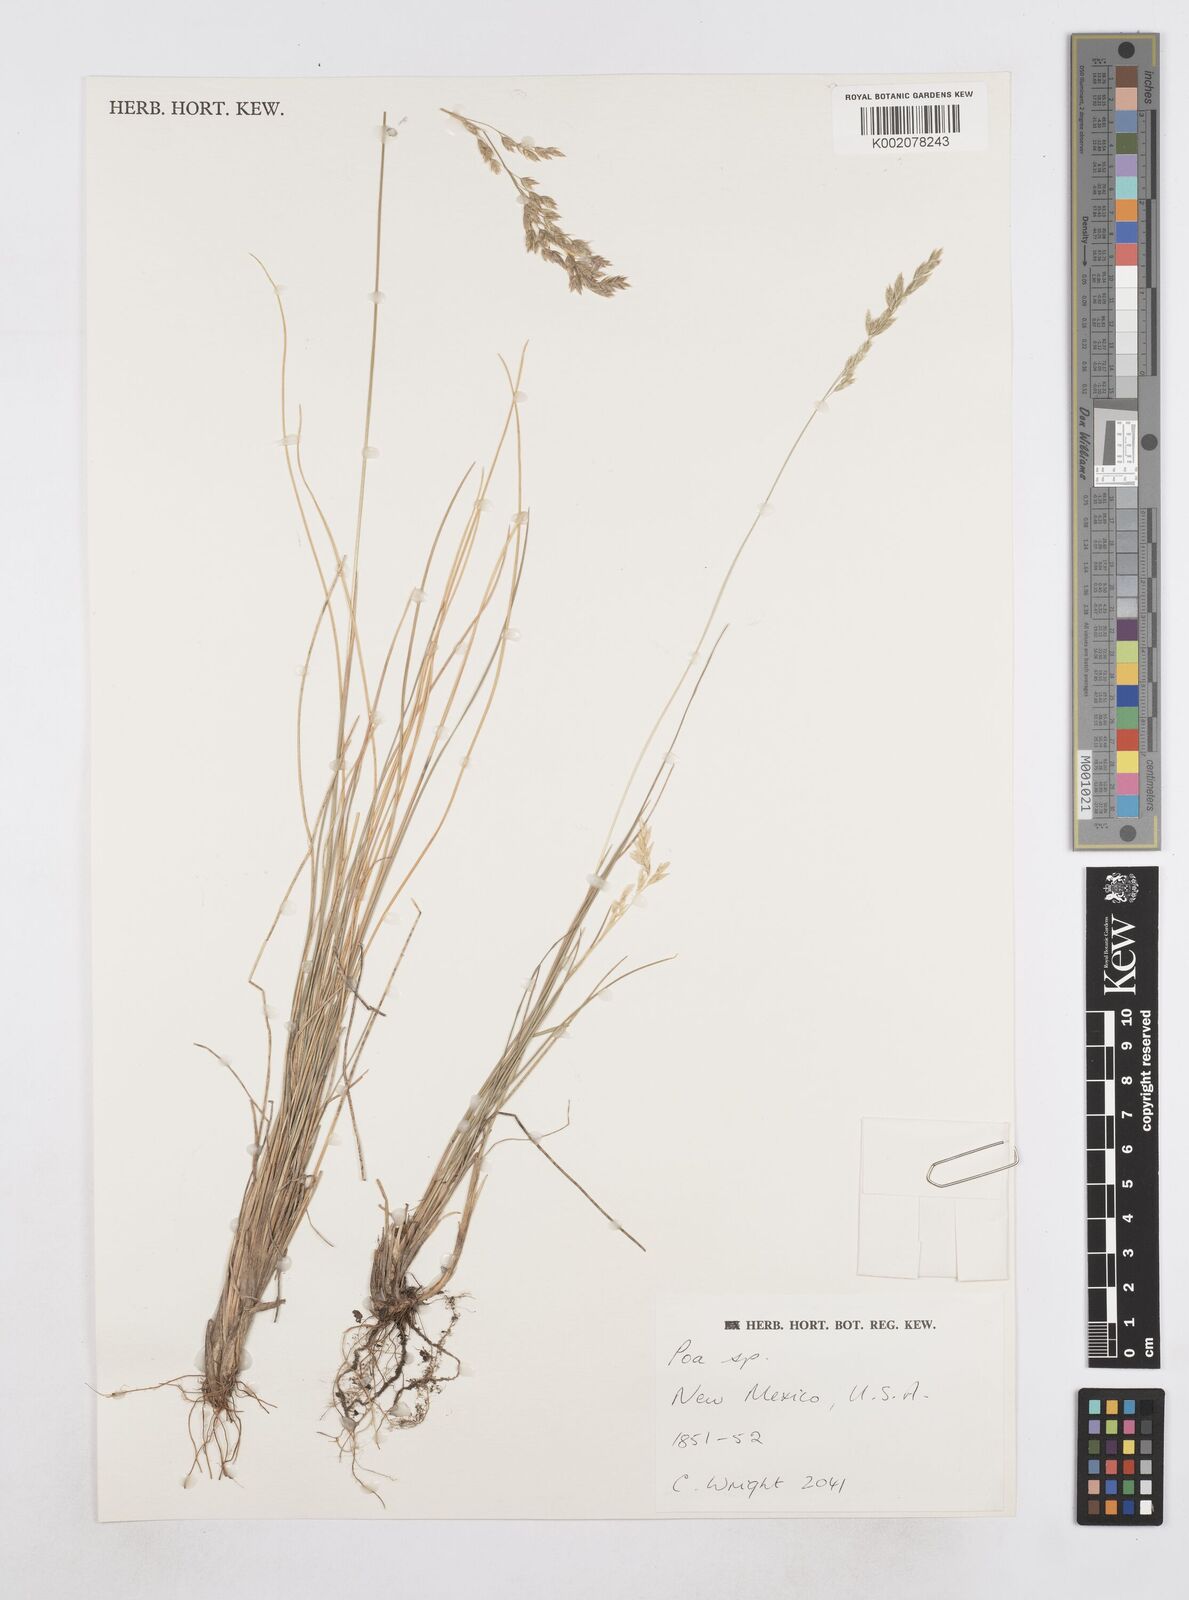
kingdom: Plantae
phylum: Tracheophyta
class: Liliopsida
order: Poales
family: Poaceae
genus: Poa
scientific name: Poa
